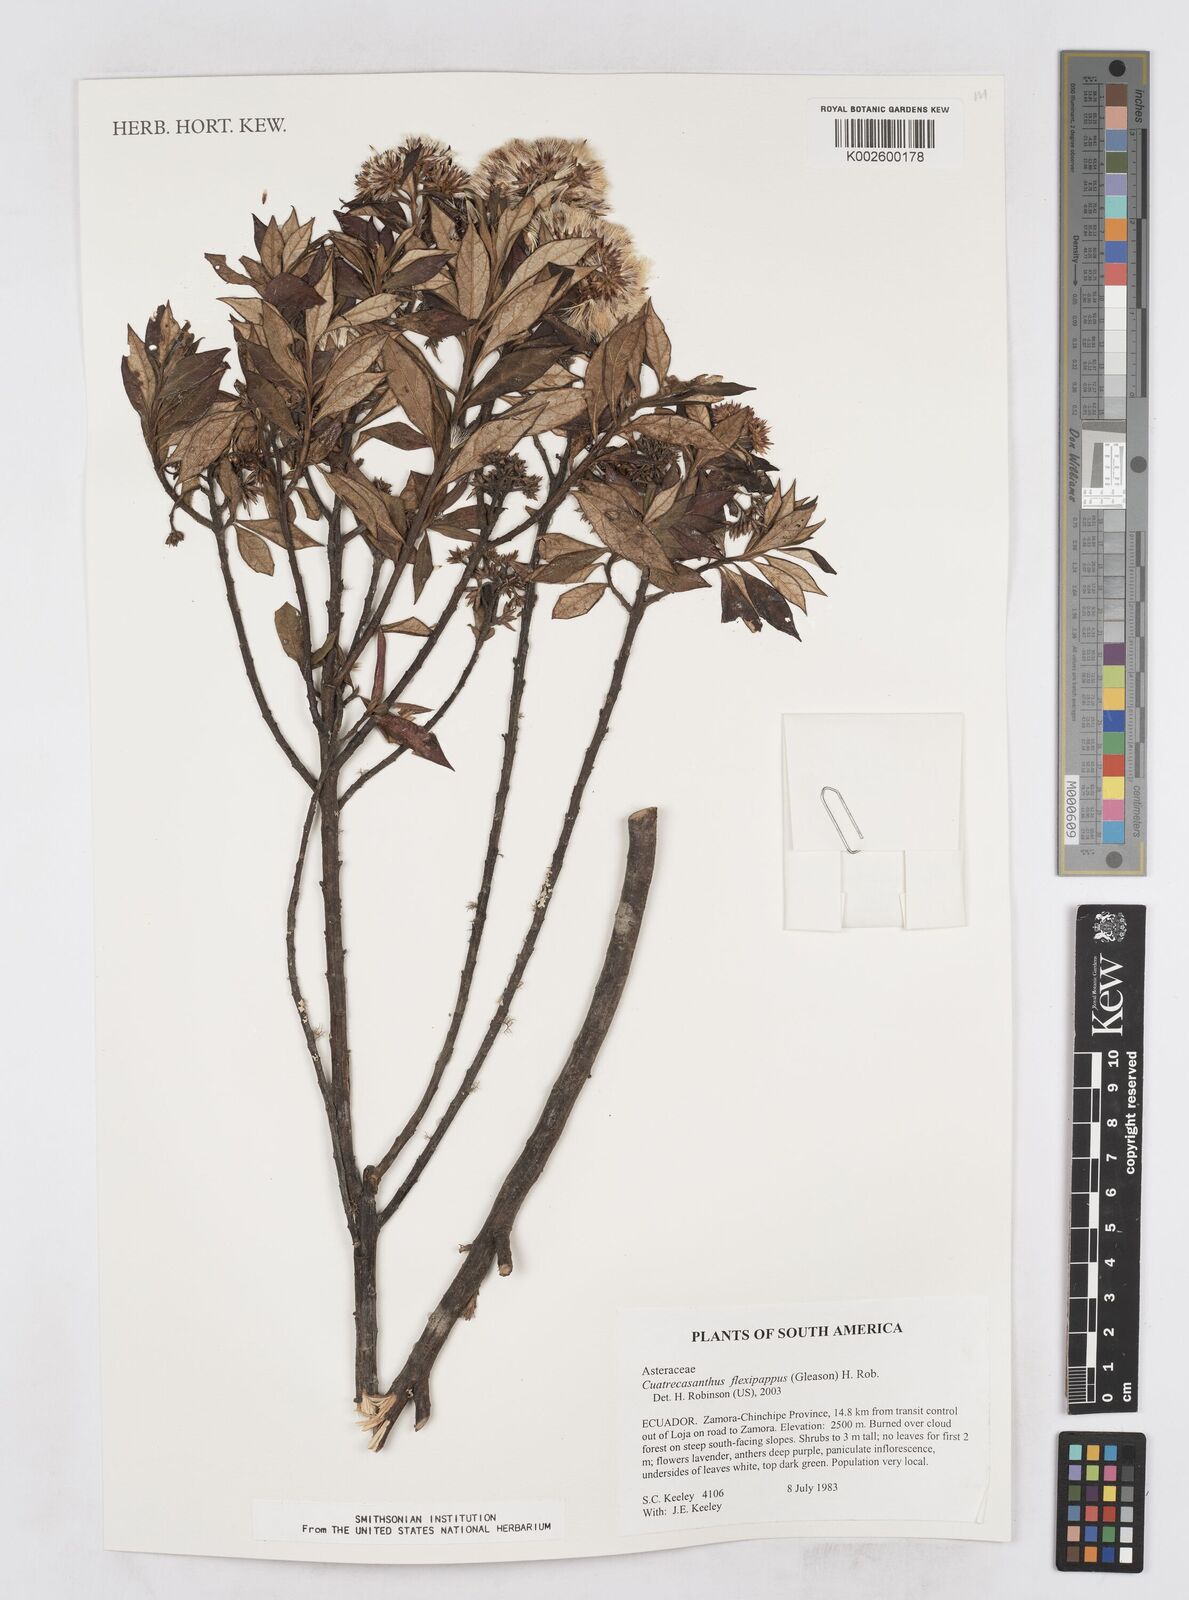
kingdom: Plantae
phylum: Tracheophyta
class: Magnoliopsida
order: Asterales
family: Asteraceae
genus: Cuatrecasanthus
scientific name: Cuatrecasanthus flexipappus
